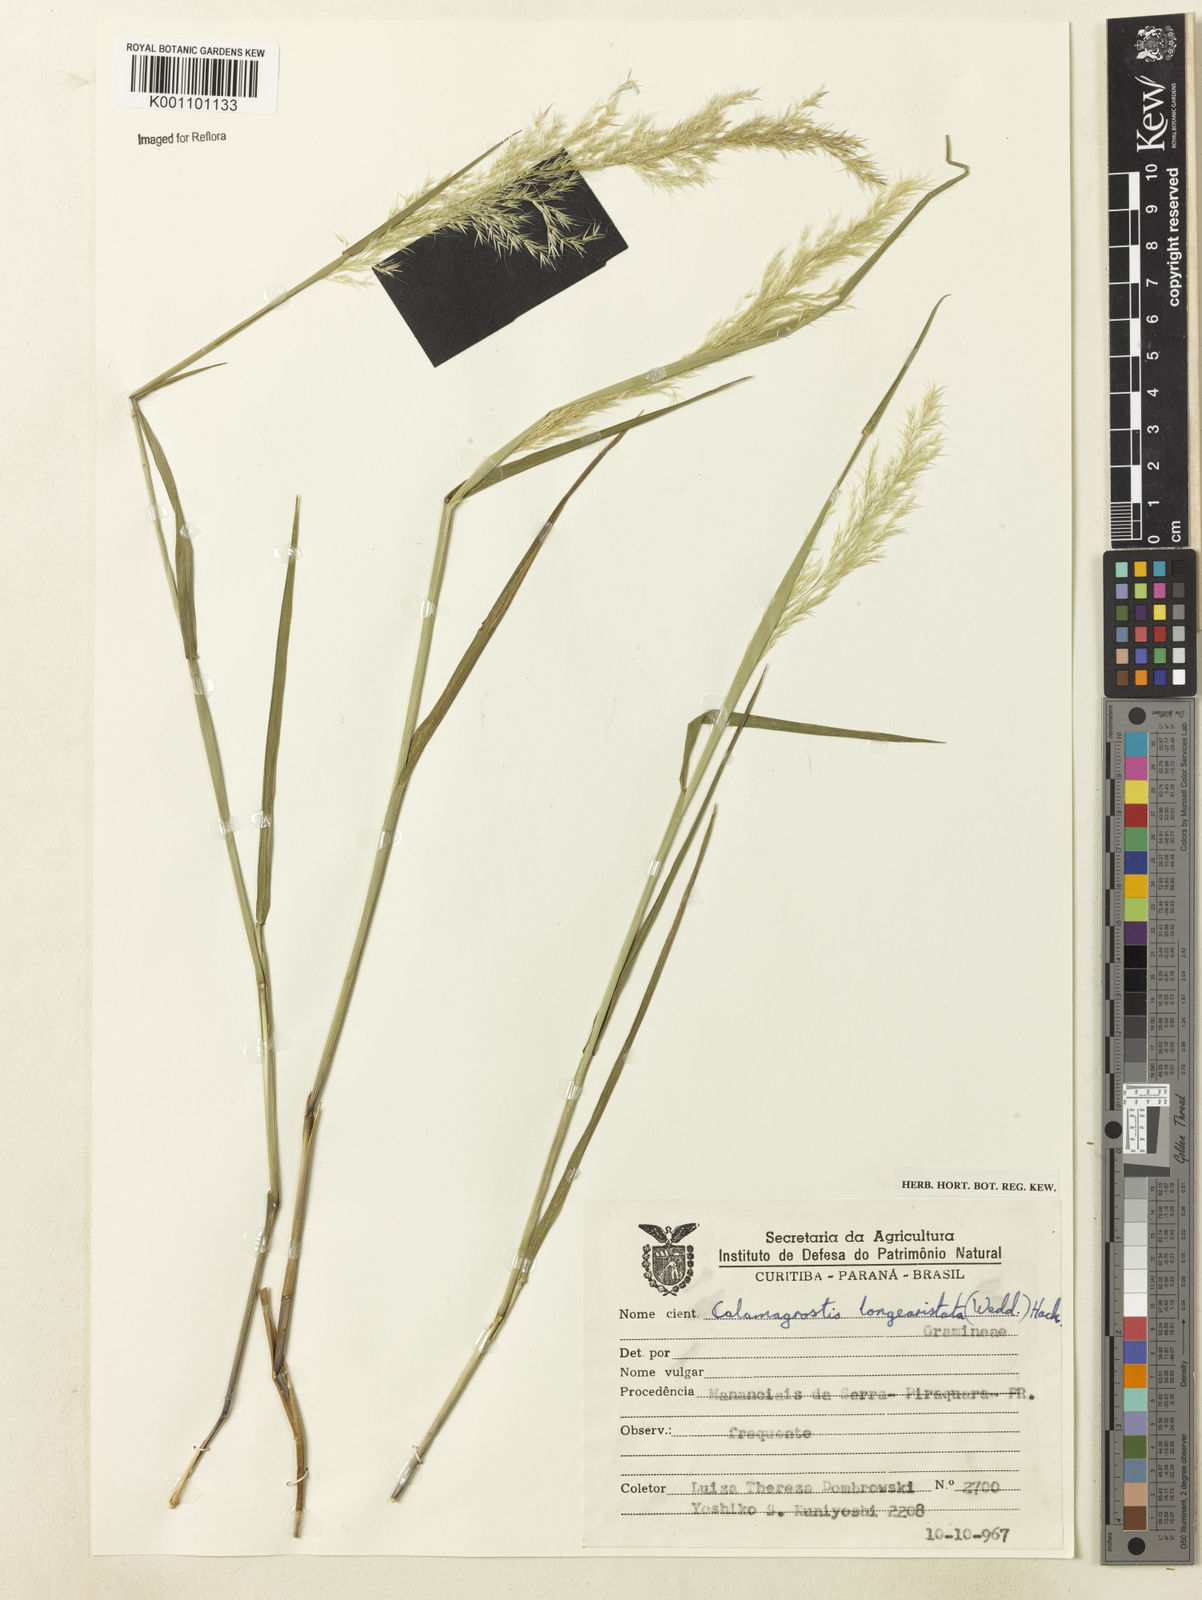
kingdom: Plantae
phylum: Tracheophyta
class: Liliopsida
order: Poales
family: Poaceae
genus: Cinnagrostis
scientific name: Cinnagrostis rupestris
